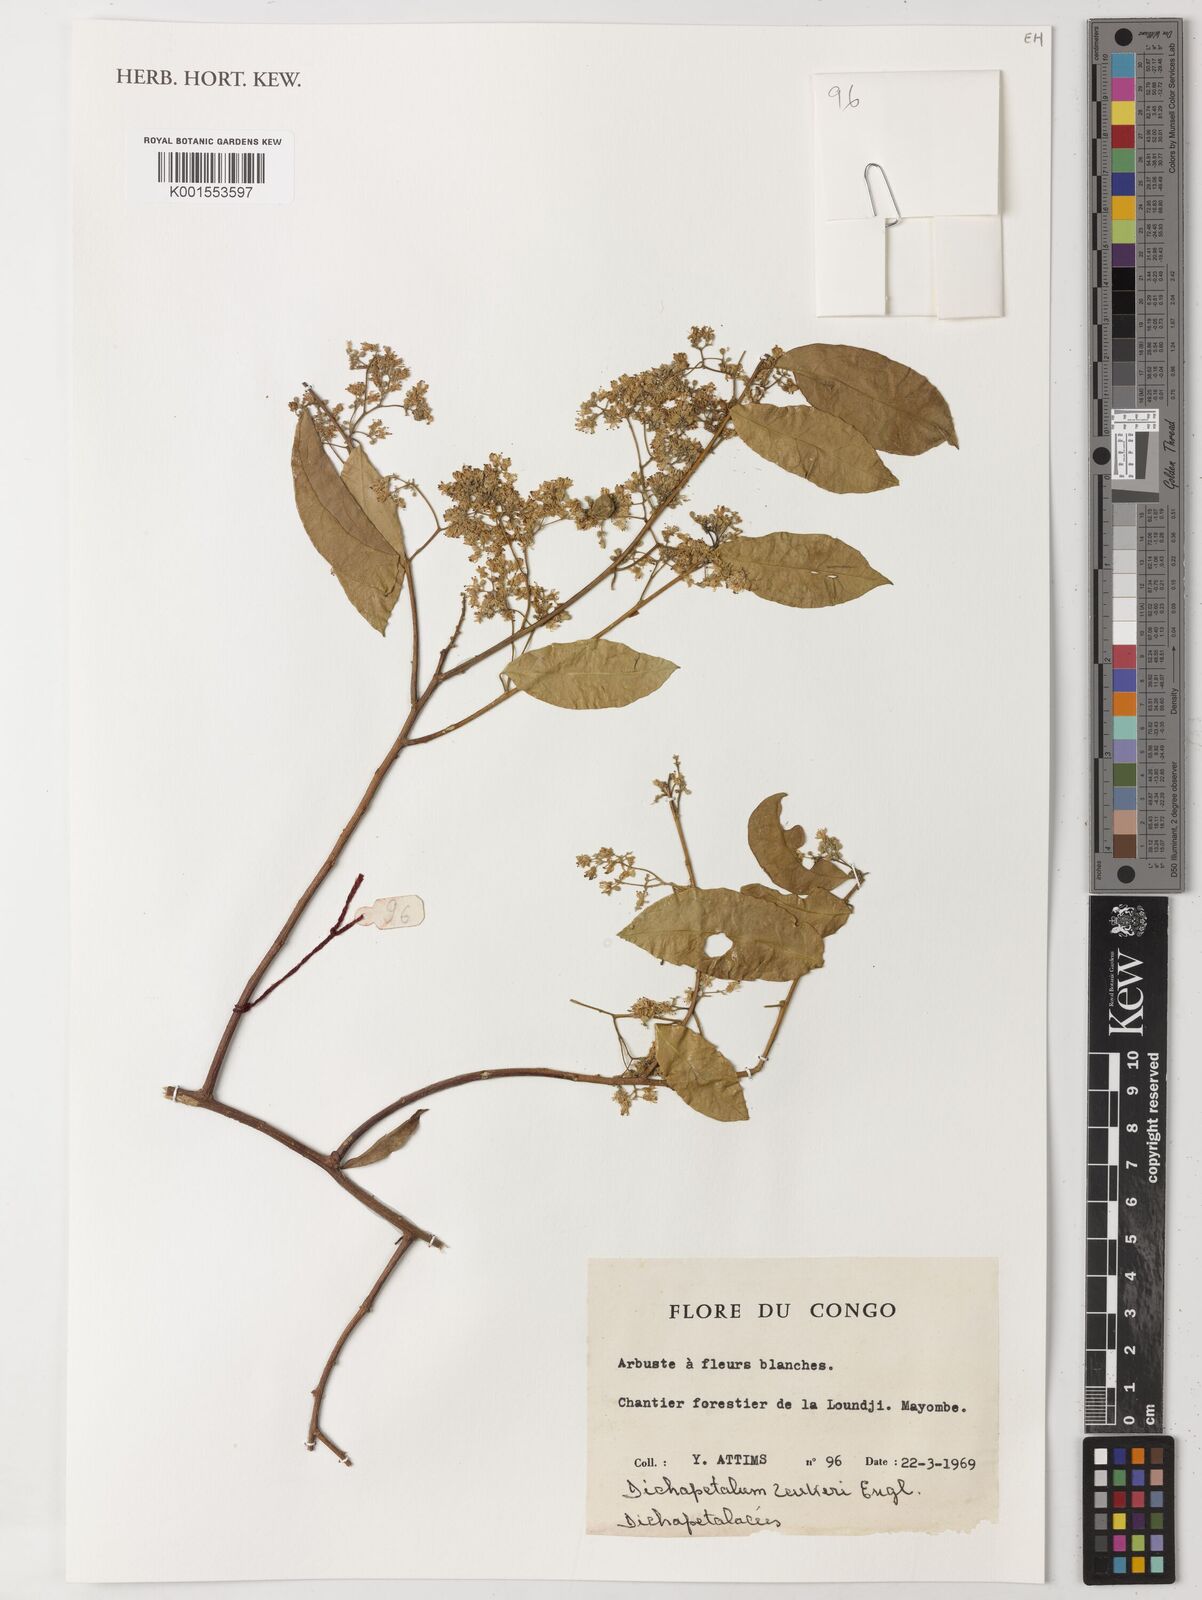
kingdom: Plantae
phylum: Tracheophyta
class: Magnoliopsida
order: Malpighiales
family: Dichapetalaceae
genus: Dichapetalum
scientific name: Dichapetalum zenkeri
